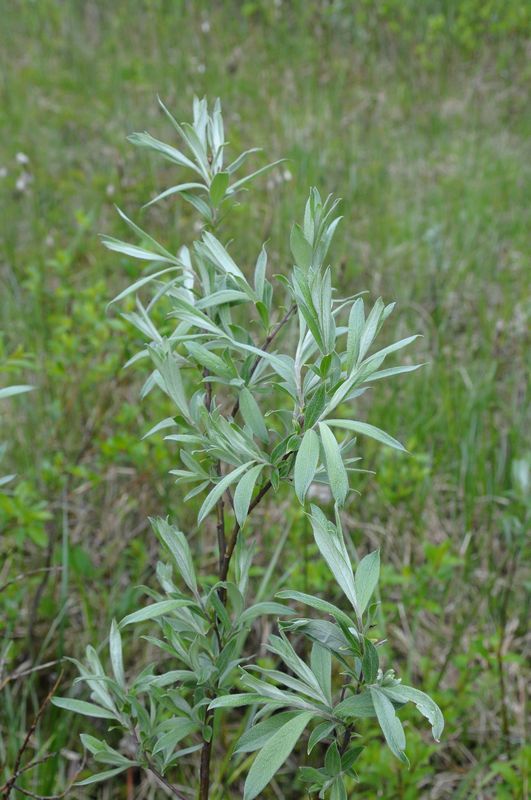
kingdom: Plantae
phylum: Tracheophyta
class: Magnoliopsida
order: Malpighiales
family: Salicaceae
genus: Salix
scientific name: Salix lapponum
